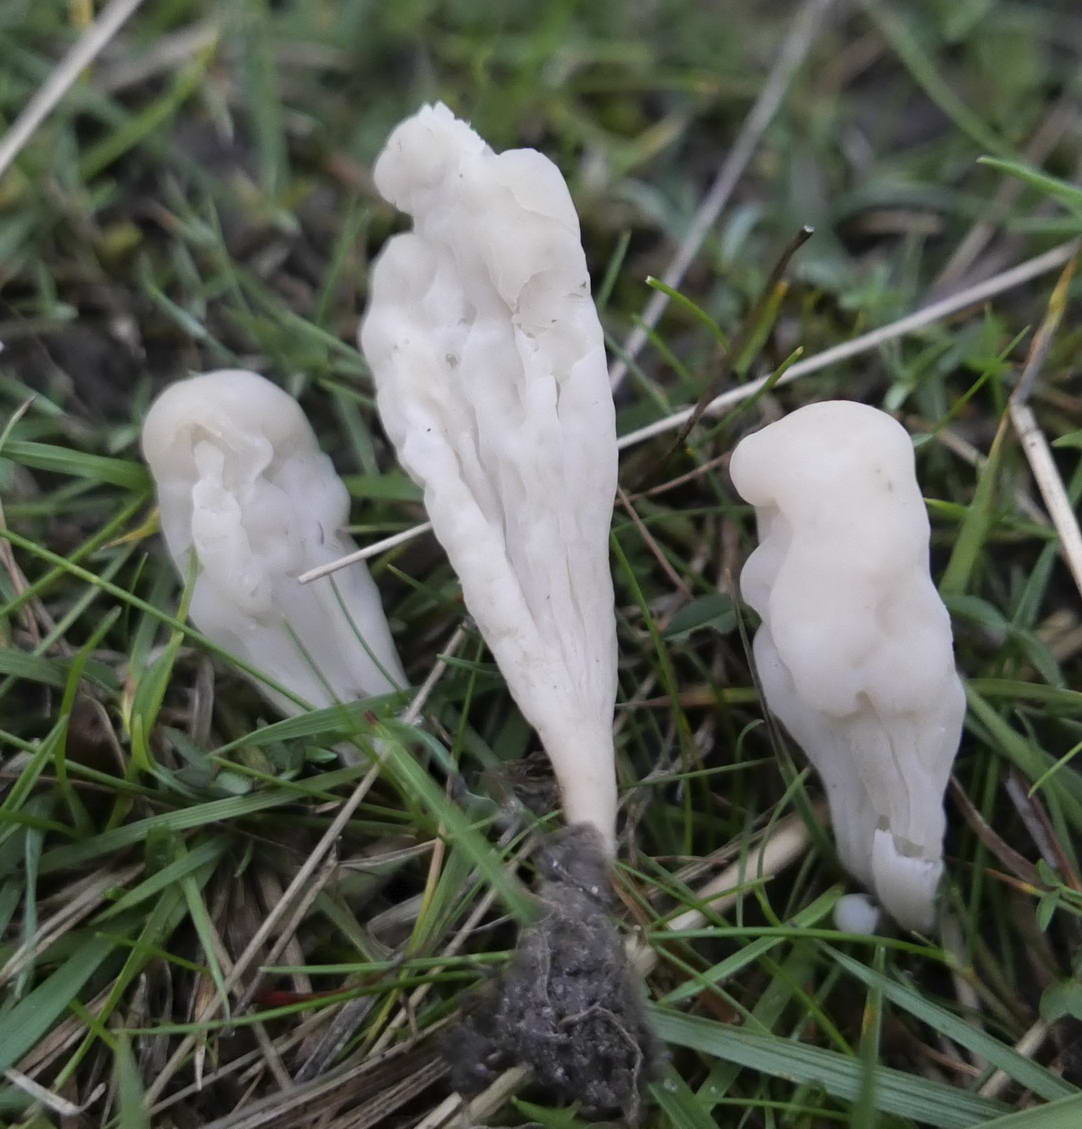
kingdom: Fungi
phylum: Basidiomycota
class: Agaricomycetes
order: Agaricales
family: Clavariaceae
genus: Clavaria
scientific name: Clavaria tenuipes
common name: isabellafarvet køllesvamp
